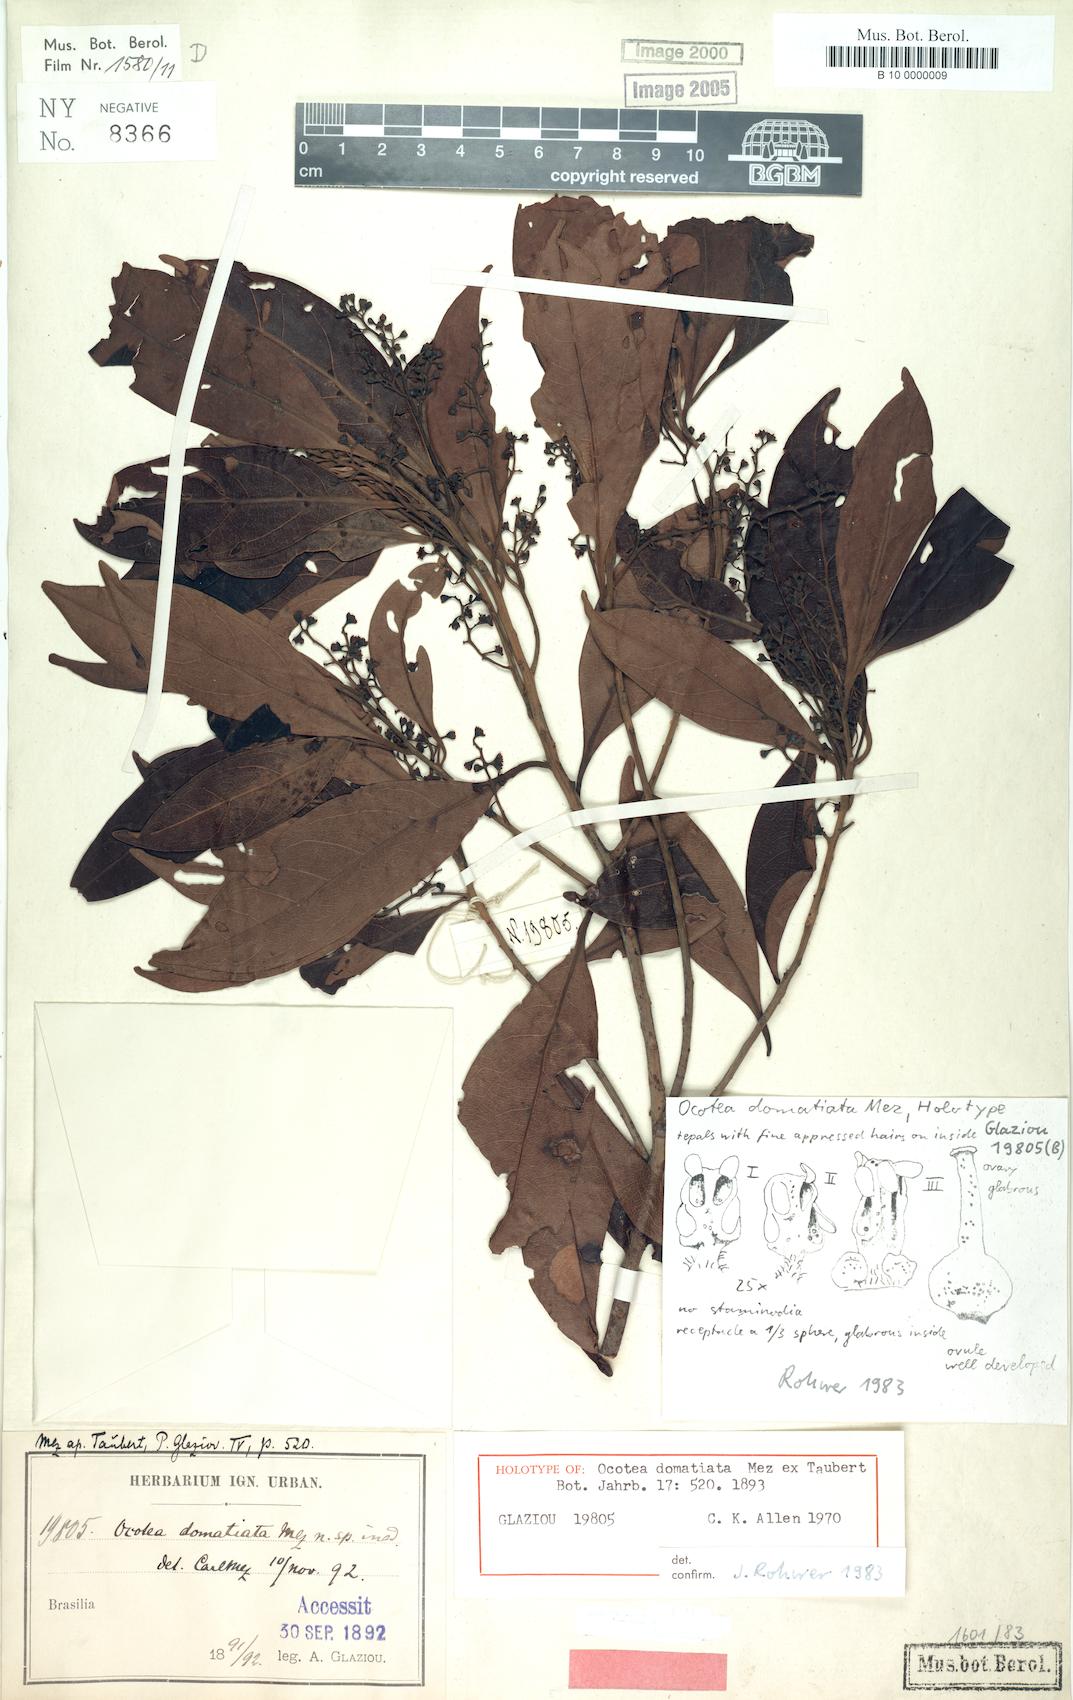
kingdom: Plantae
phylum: Tracheophyta
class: Magnoliopsida
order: Laurales
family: Lauraceae
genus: Ocotea
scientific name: Ocotea domatiata
